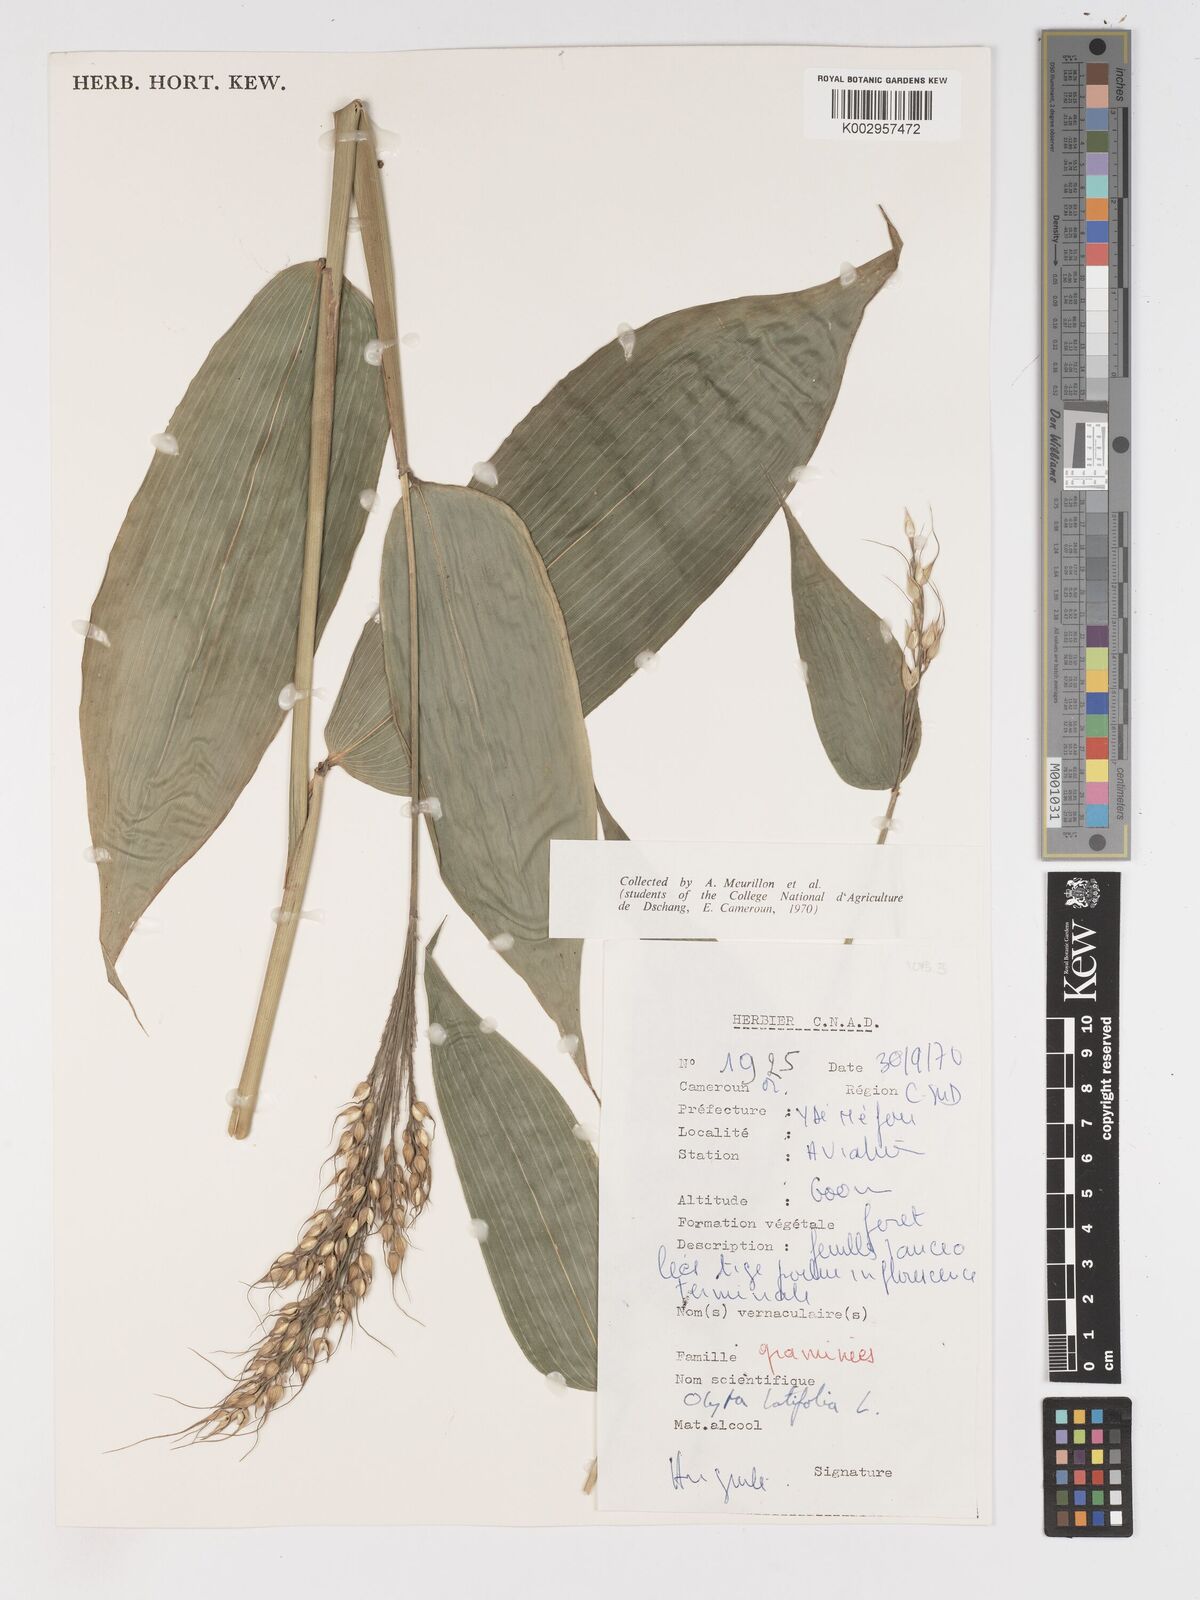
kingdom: Plantae
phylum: Tracheophyta
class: Liliopsida
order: Poales
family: Poaceae
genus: Olyra
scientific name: Olyra latifolia
